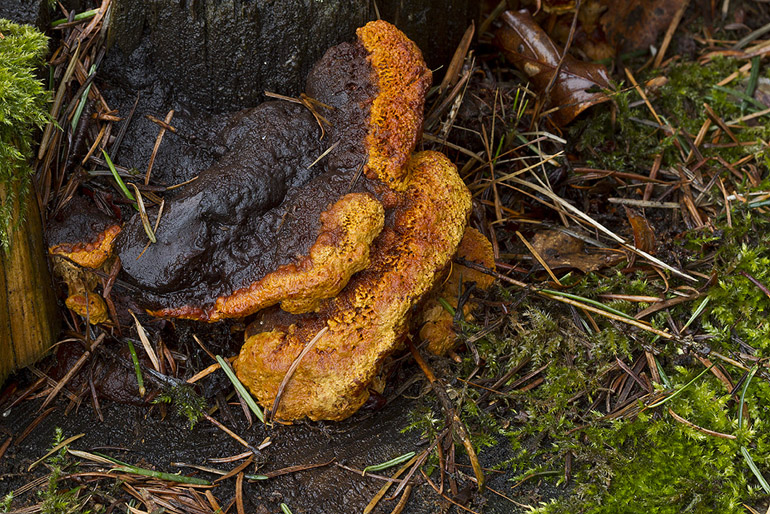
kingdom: Fungi
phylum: Basidiomycota
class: Agaricomycetes
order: Gloeophyllales
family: Gloeophyllaceae
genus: Gloeophyllum
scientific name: Gloeophyllum odoratum
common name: duftende korkhat
